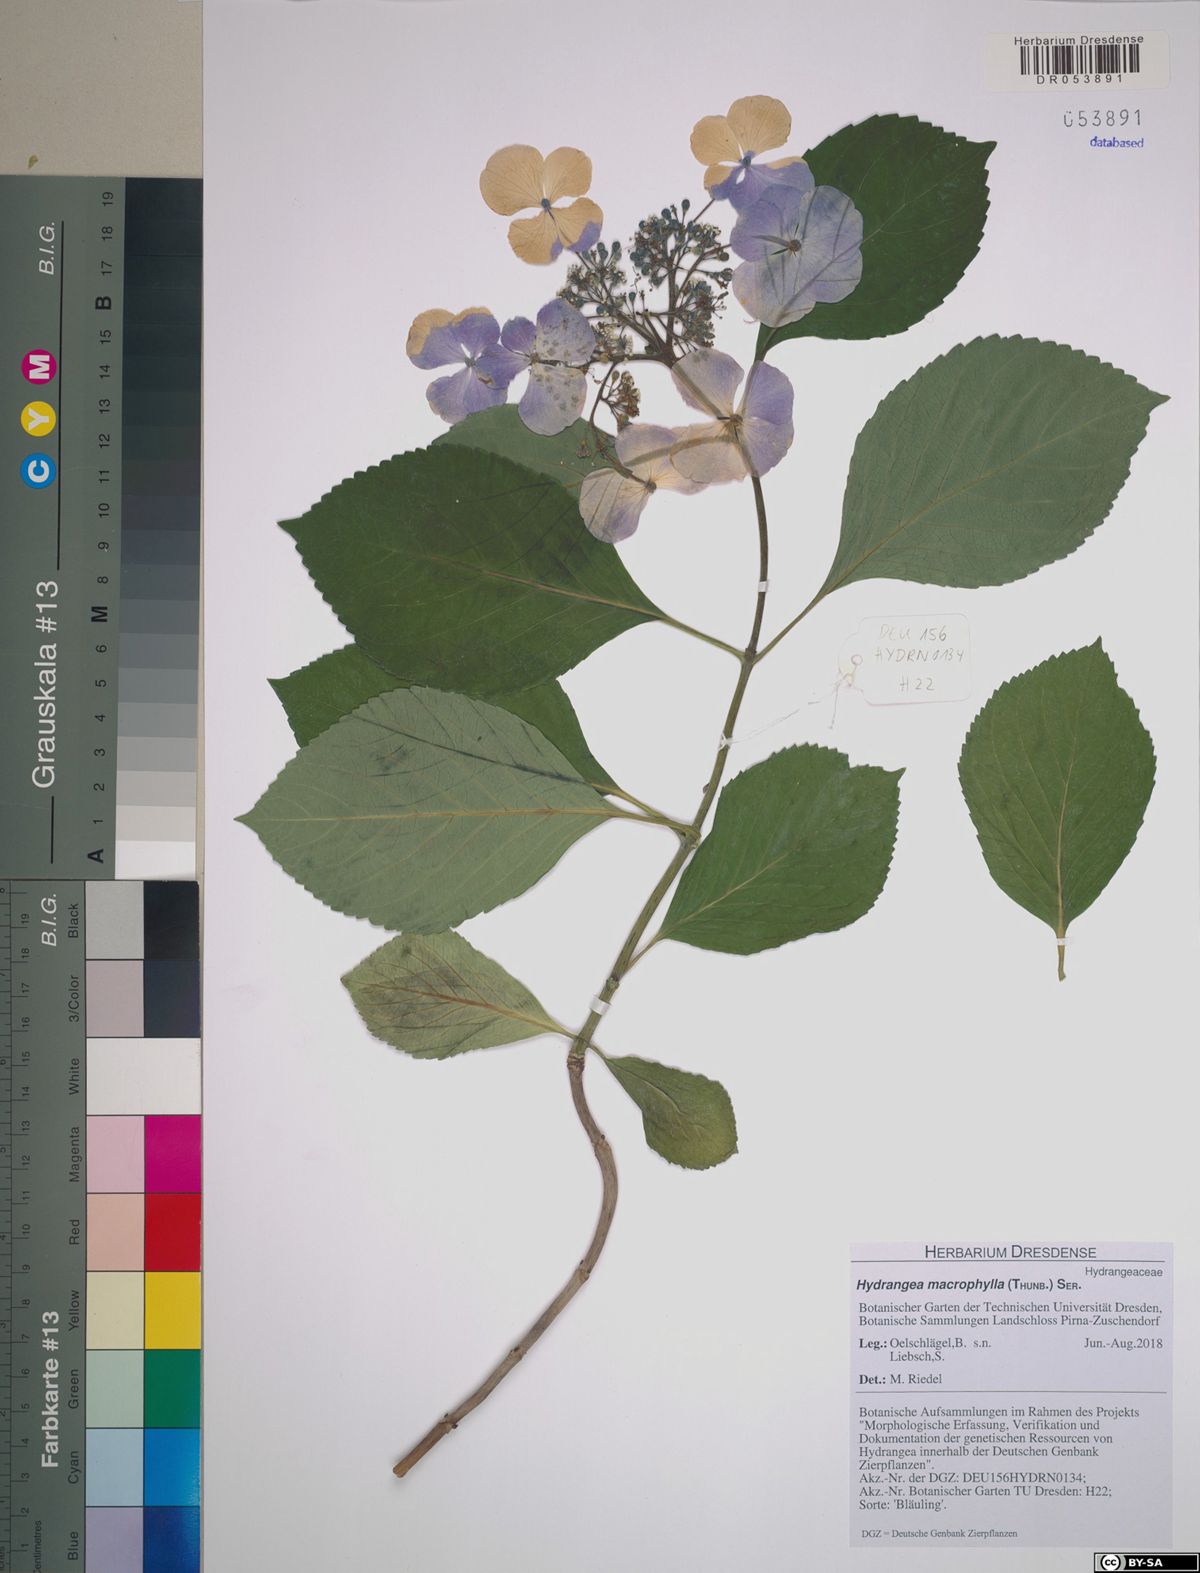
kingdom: Plantae
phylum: Tracheophyta
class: Magnoliopsida
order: Cornales
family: Hydrangeaceae
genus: Hydrangea
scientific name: Hydrangea macrophylla
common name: Hydrangea
